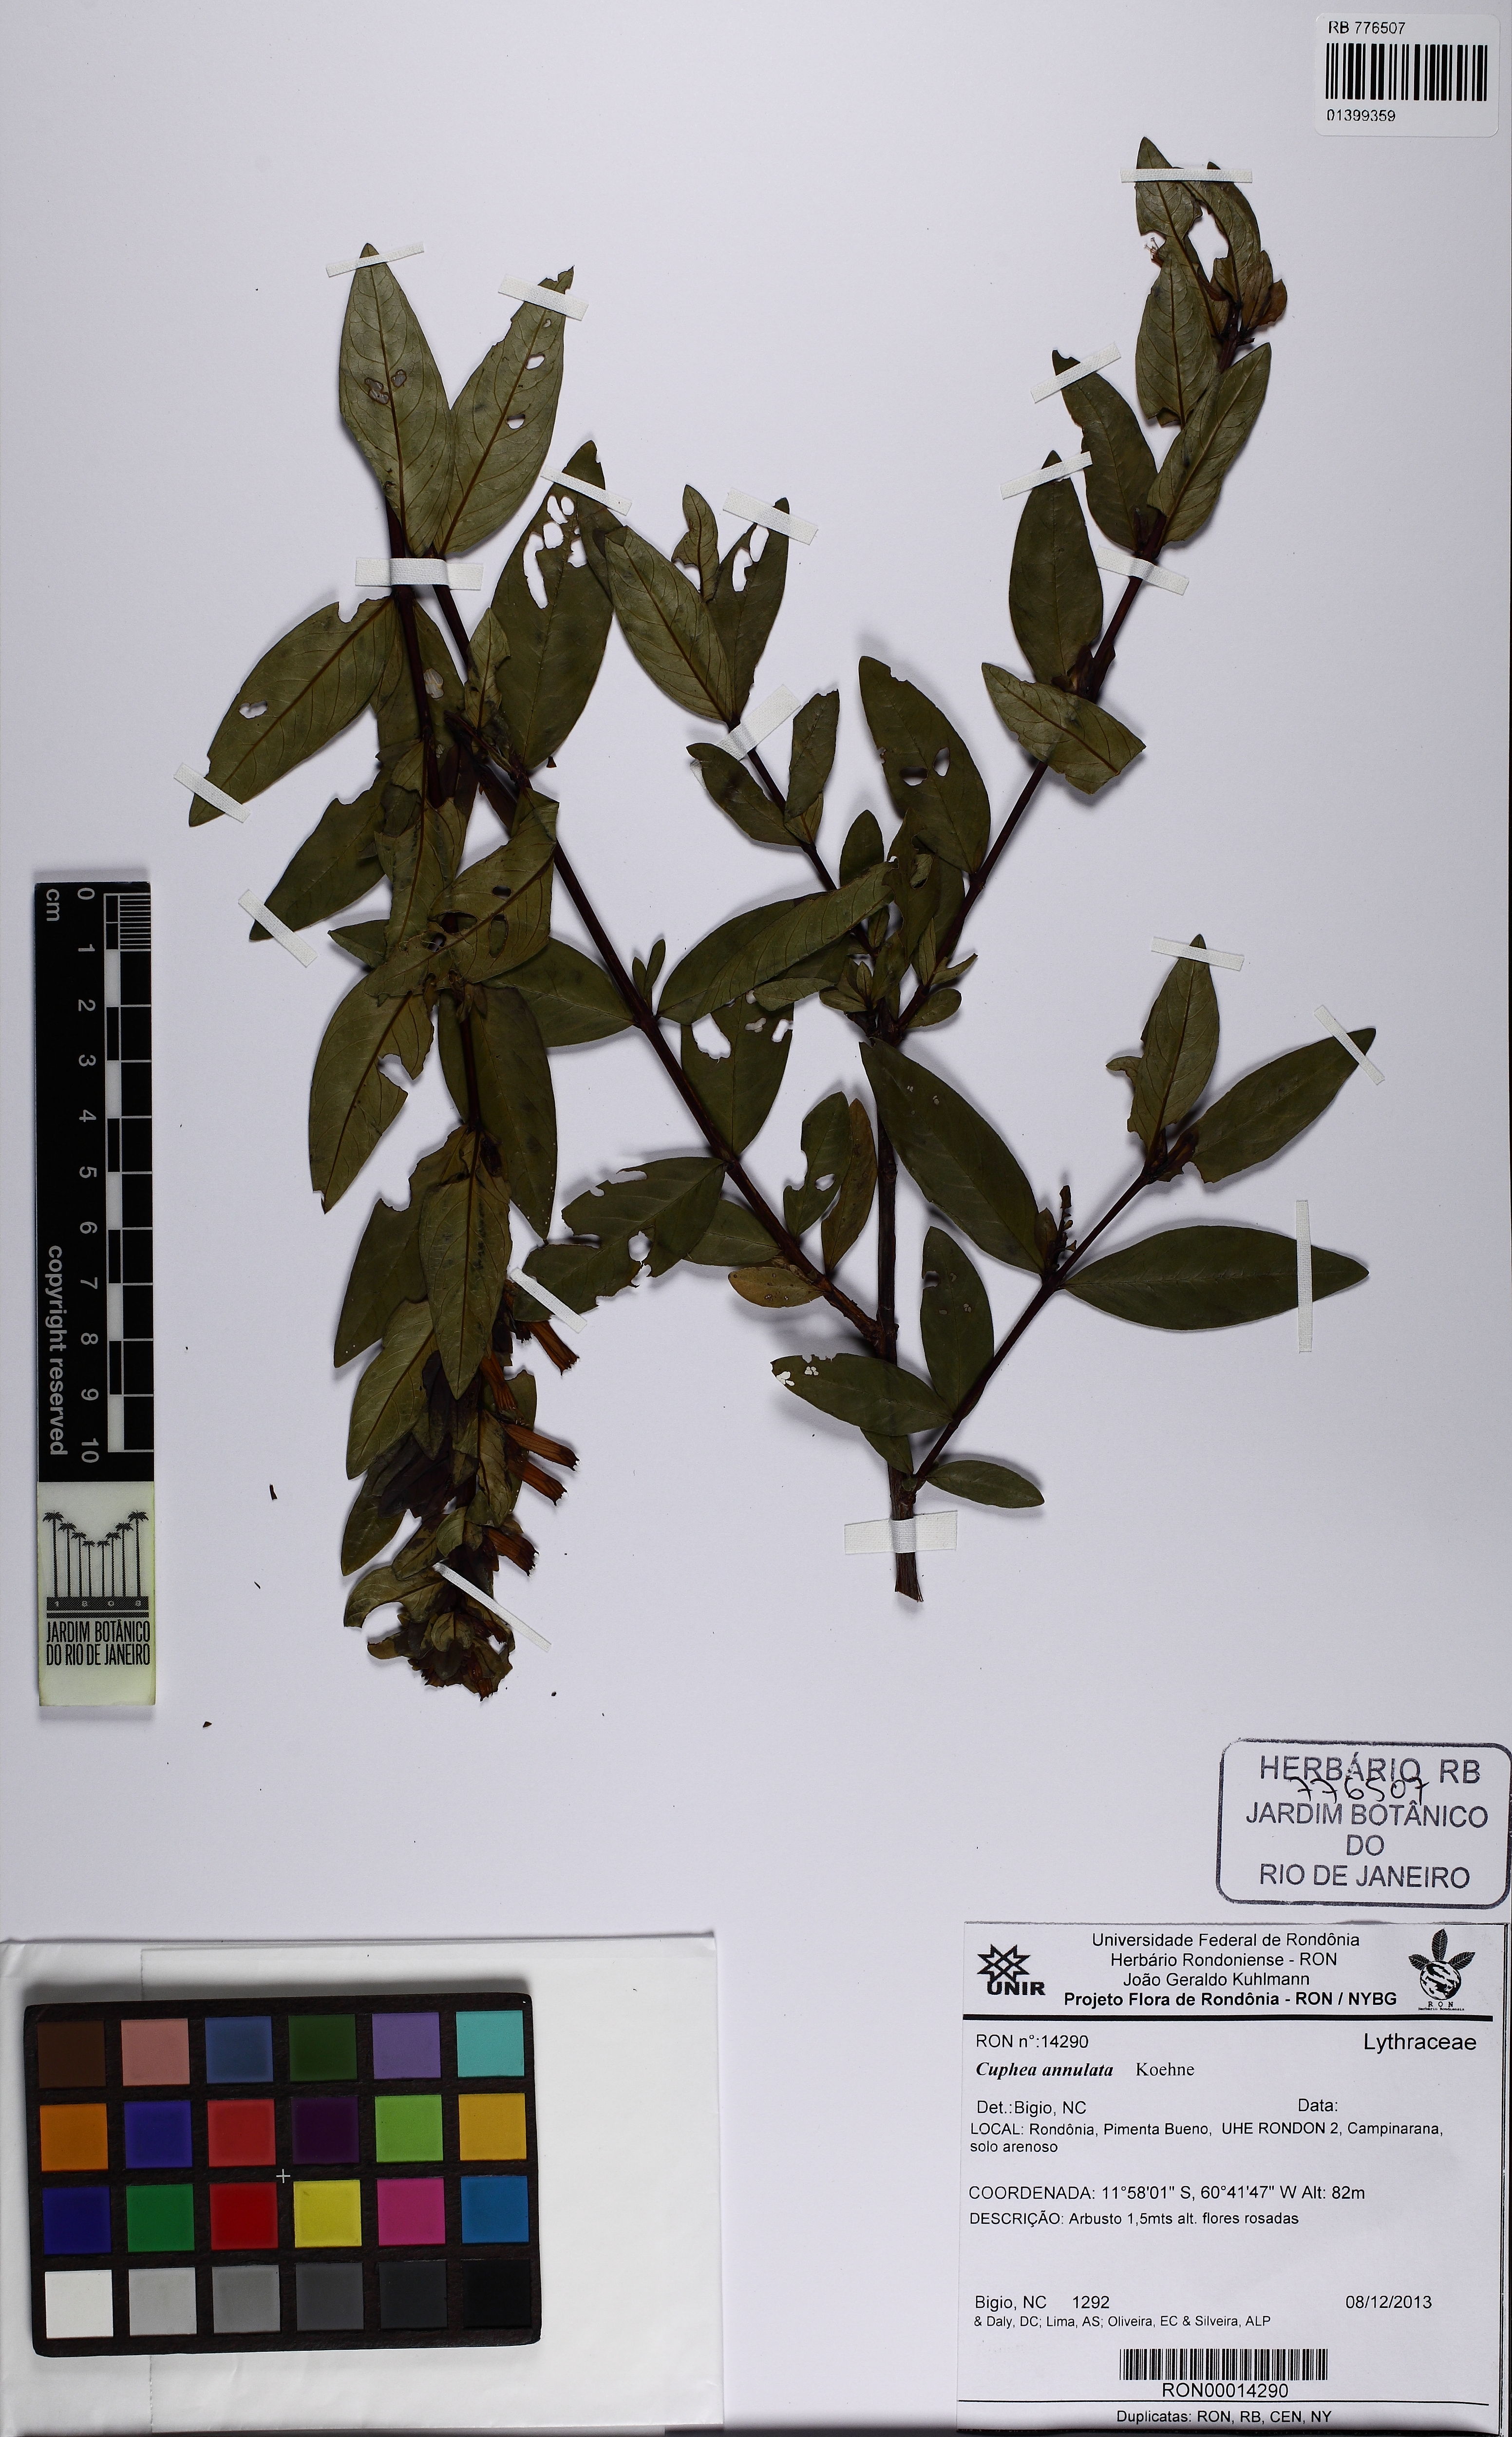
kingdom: Plantae
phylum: Tracheophyta
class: Magnoliopsida
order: Myrtales
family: Lythraceae
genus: Cuphea
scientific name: Cuphea annulata
